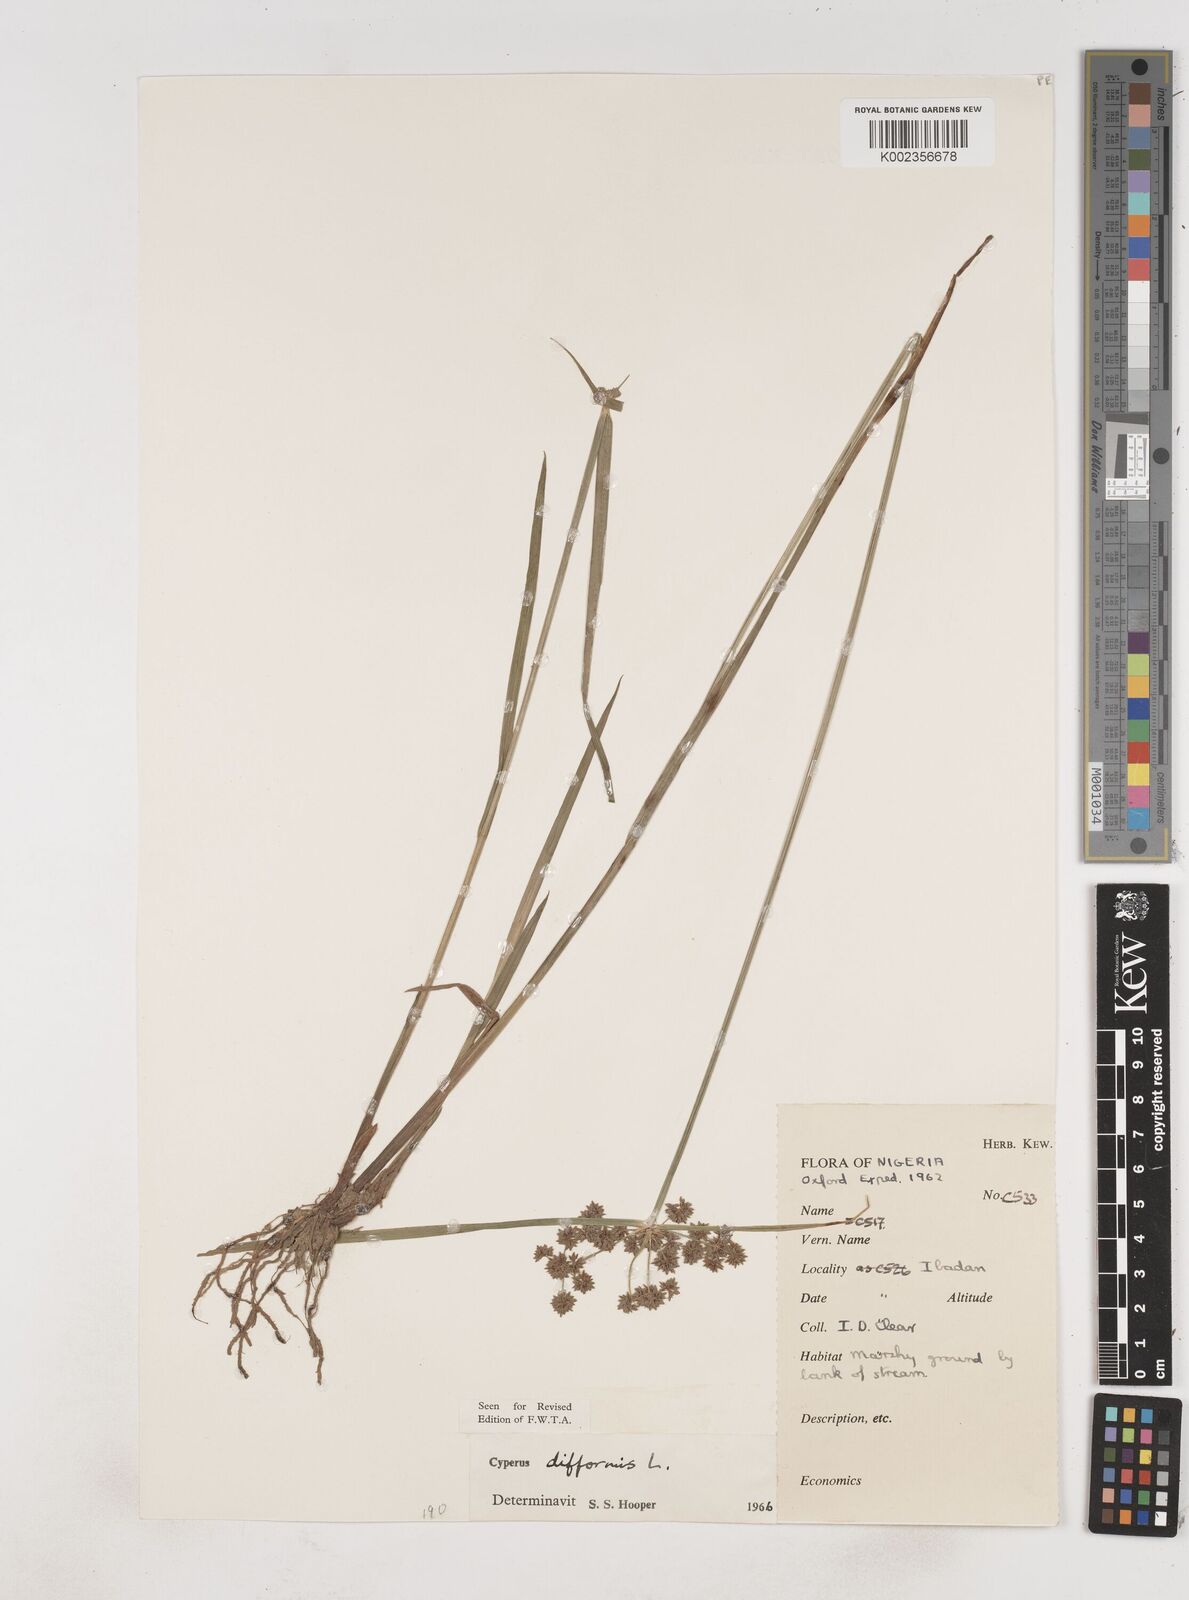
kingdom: Plantae
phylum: Tracheophyta
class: Liliopsida
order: Poales
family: Cyperaceae
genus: Cyperus
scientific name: Cyperus difformis
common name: Variable flatsedge
